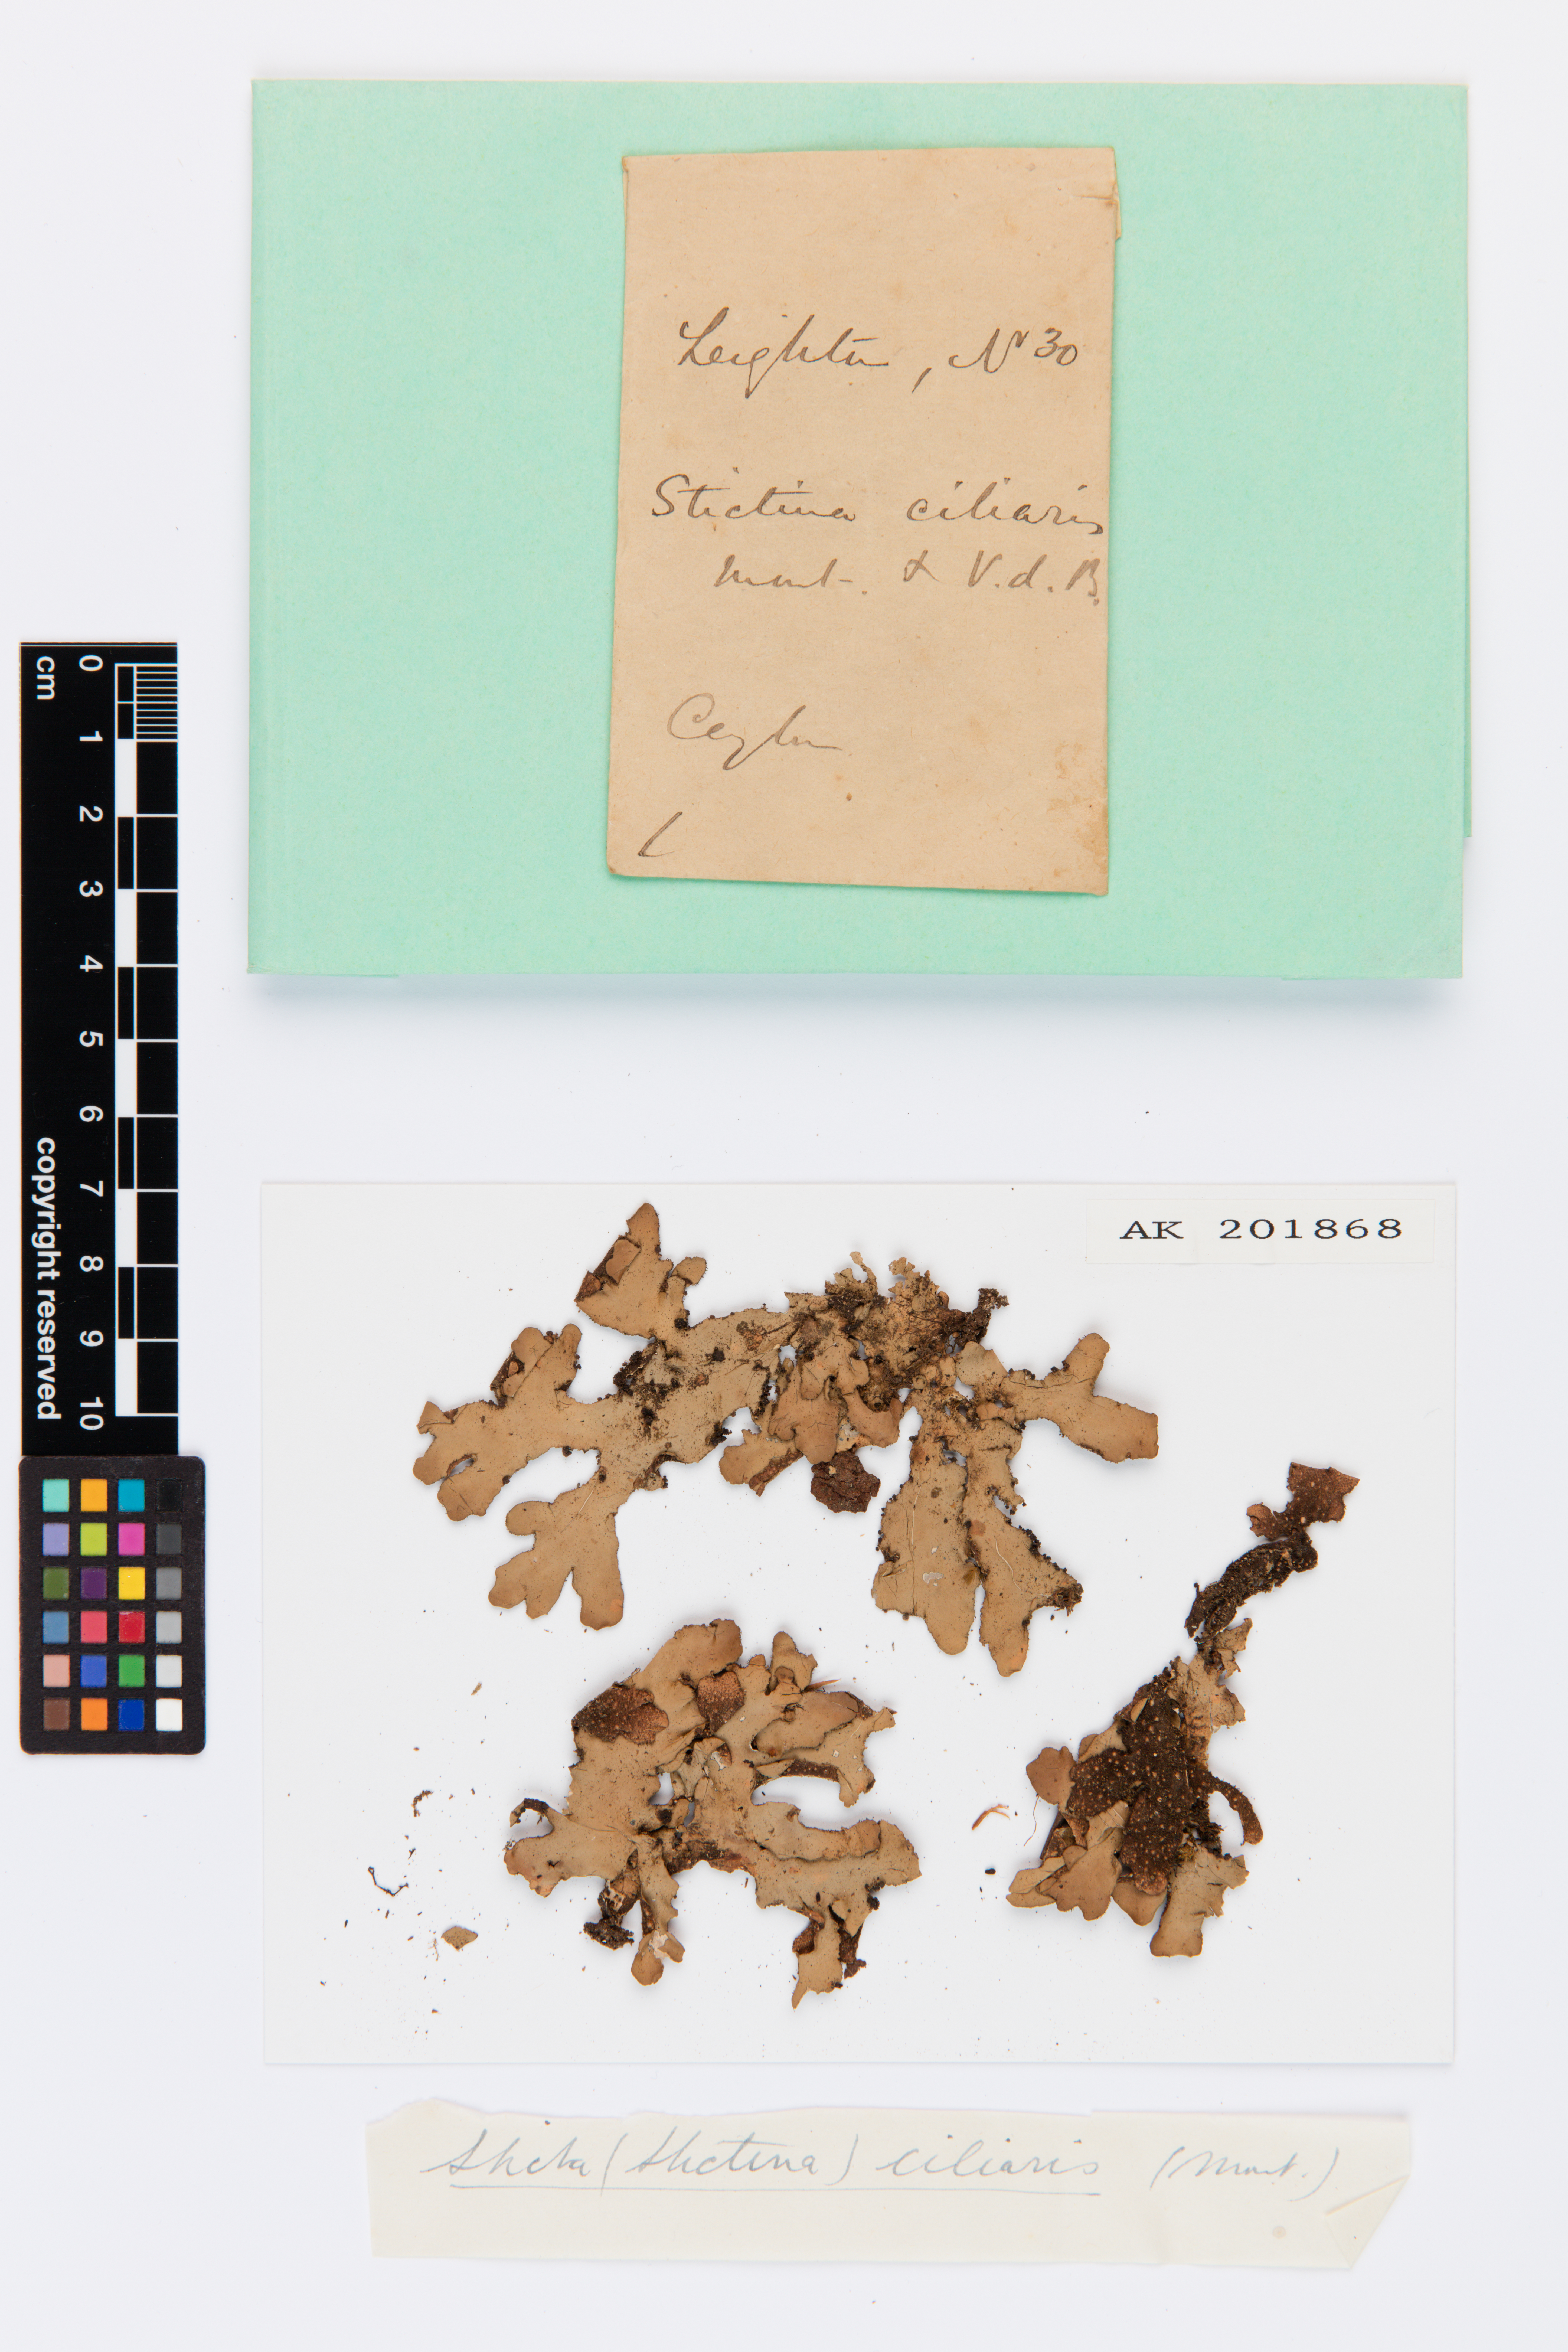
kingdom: Fungi
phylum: Ascomycota
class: Lecanoromycetes
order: Peltigerales
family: Lobariaceae
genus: Sticta
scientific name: Sticta ciliaris
